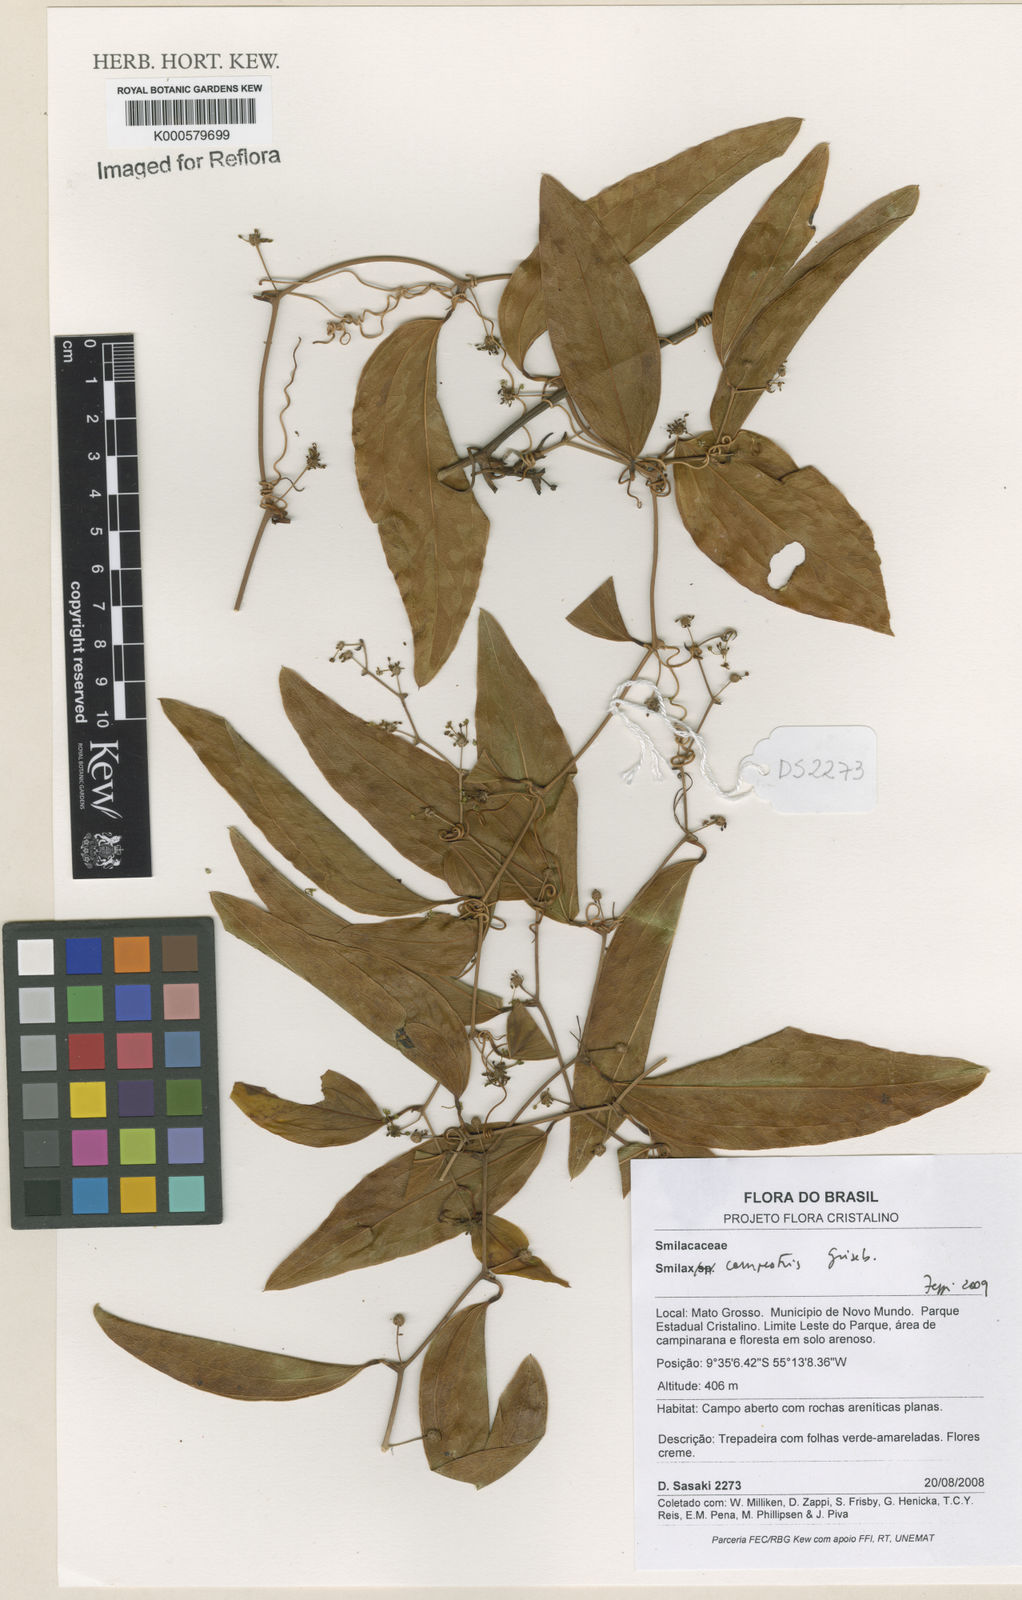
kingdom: Plantae
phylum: Tracheophyta
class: Liliopsida
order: Liliales
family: Smilacaceae
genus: Smilax
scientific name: Smilax campestris
